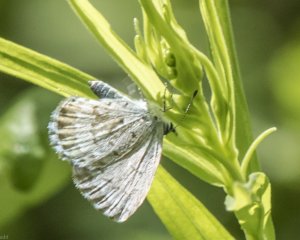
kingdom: Animalia
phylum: Arthropoda
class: Insecta
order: Lepidoptera
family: Lycaenidae
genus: Celastrina
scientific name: Celastrina serotina
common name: Cherry Gall Azure
